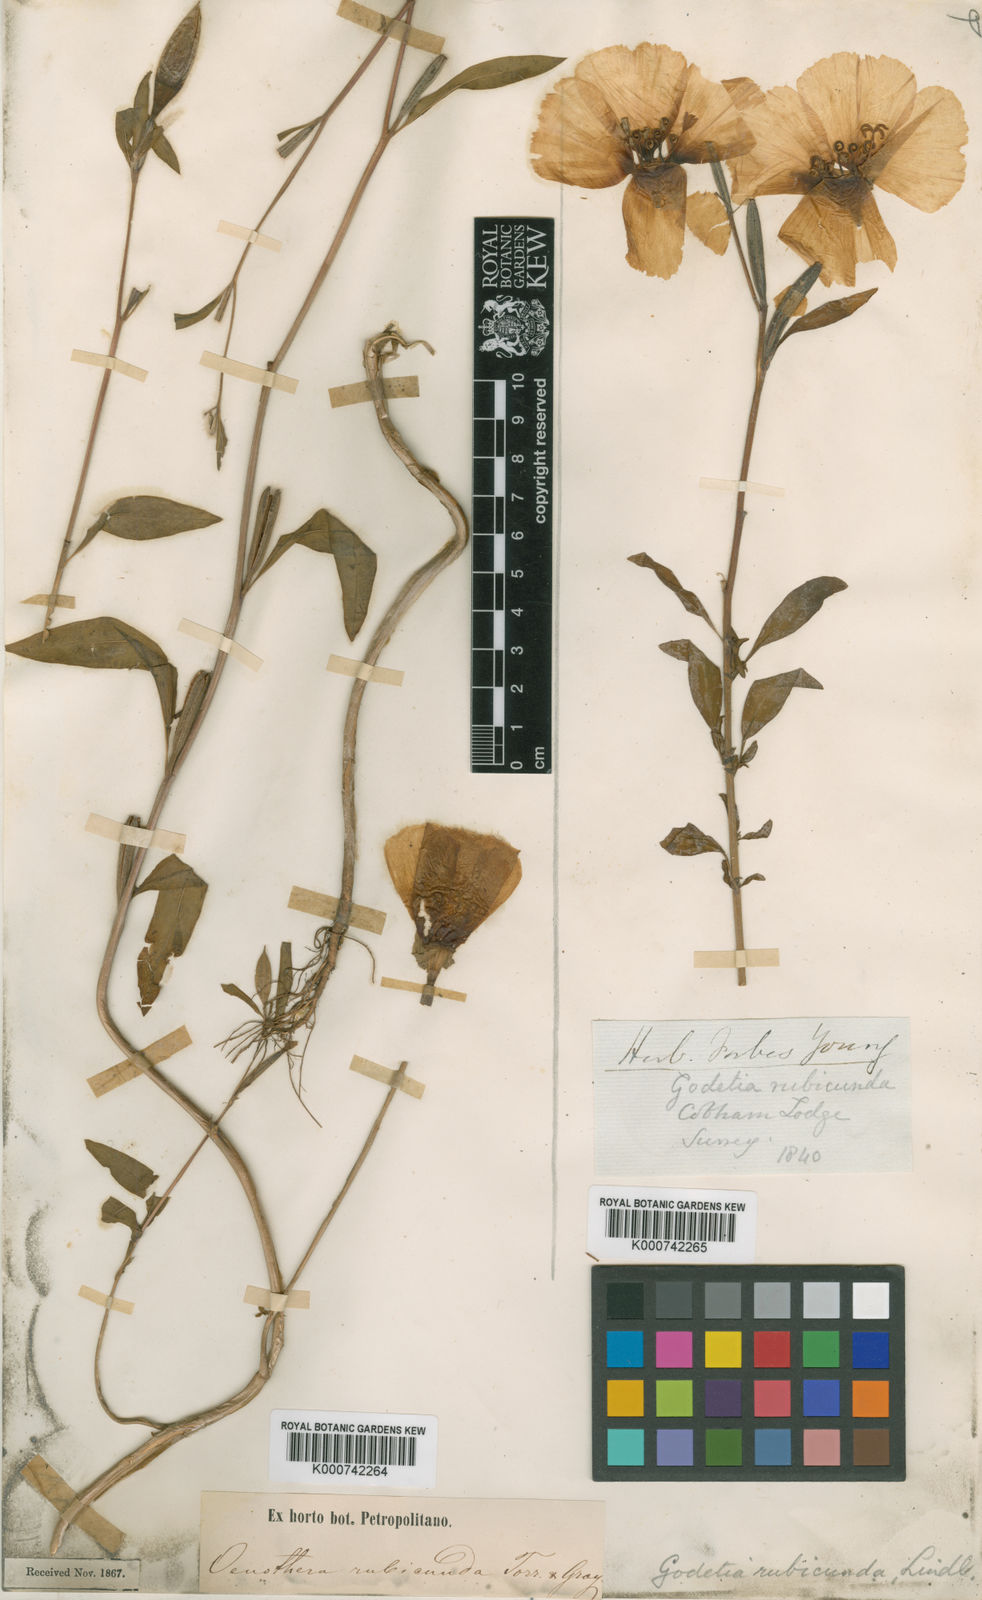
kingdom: Plantae
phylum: Tracheophyta
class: Magnoliopsida
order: Myrtales
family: Onagraceae
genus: Clarkia
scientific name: Clarkia rubicunda
